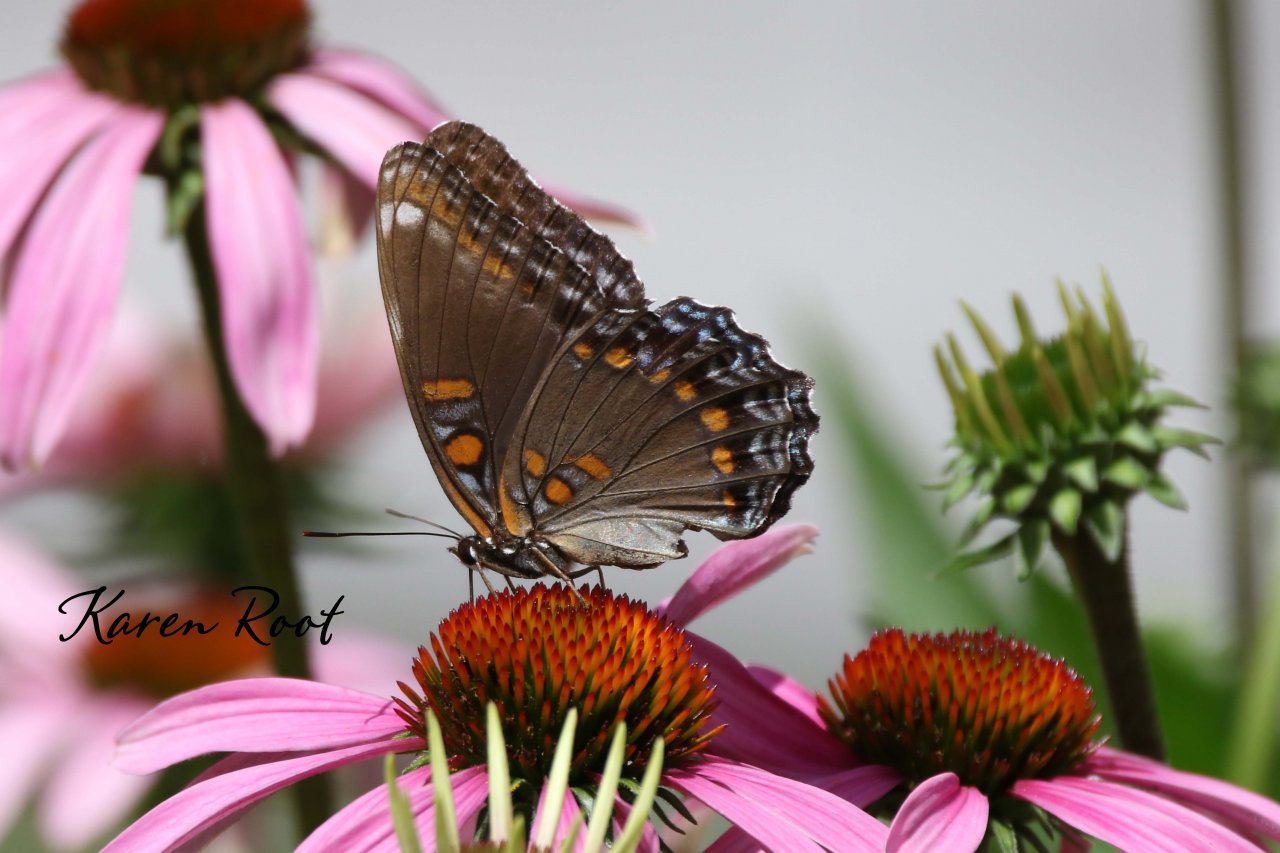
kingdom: Animalia
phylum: Arthropoda
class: Insecta
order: Lepidoptera
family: Nymphalidae
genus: Limenitis
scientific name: Limenitis astyanax
